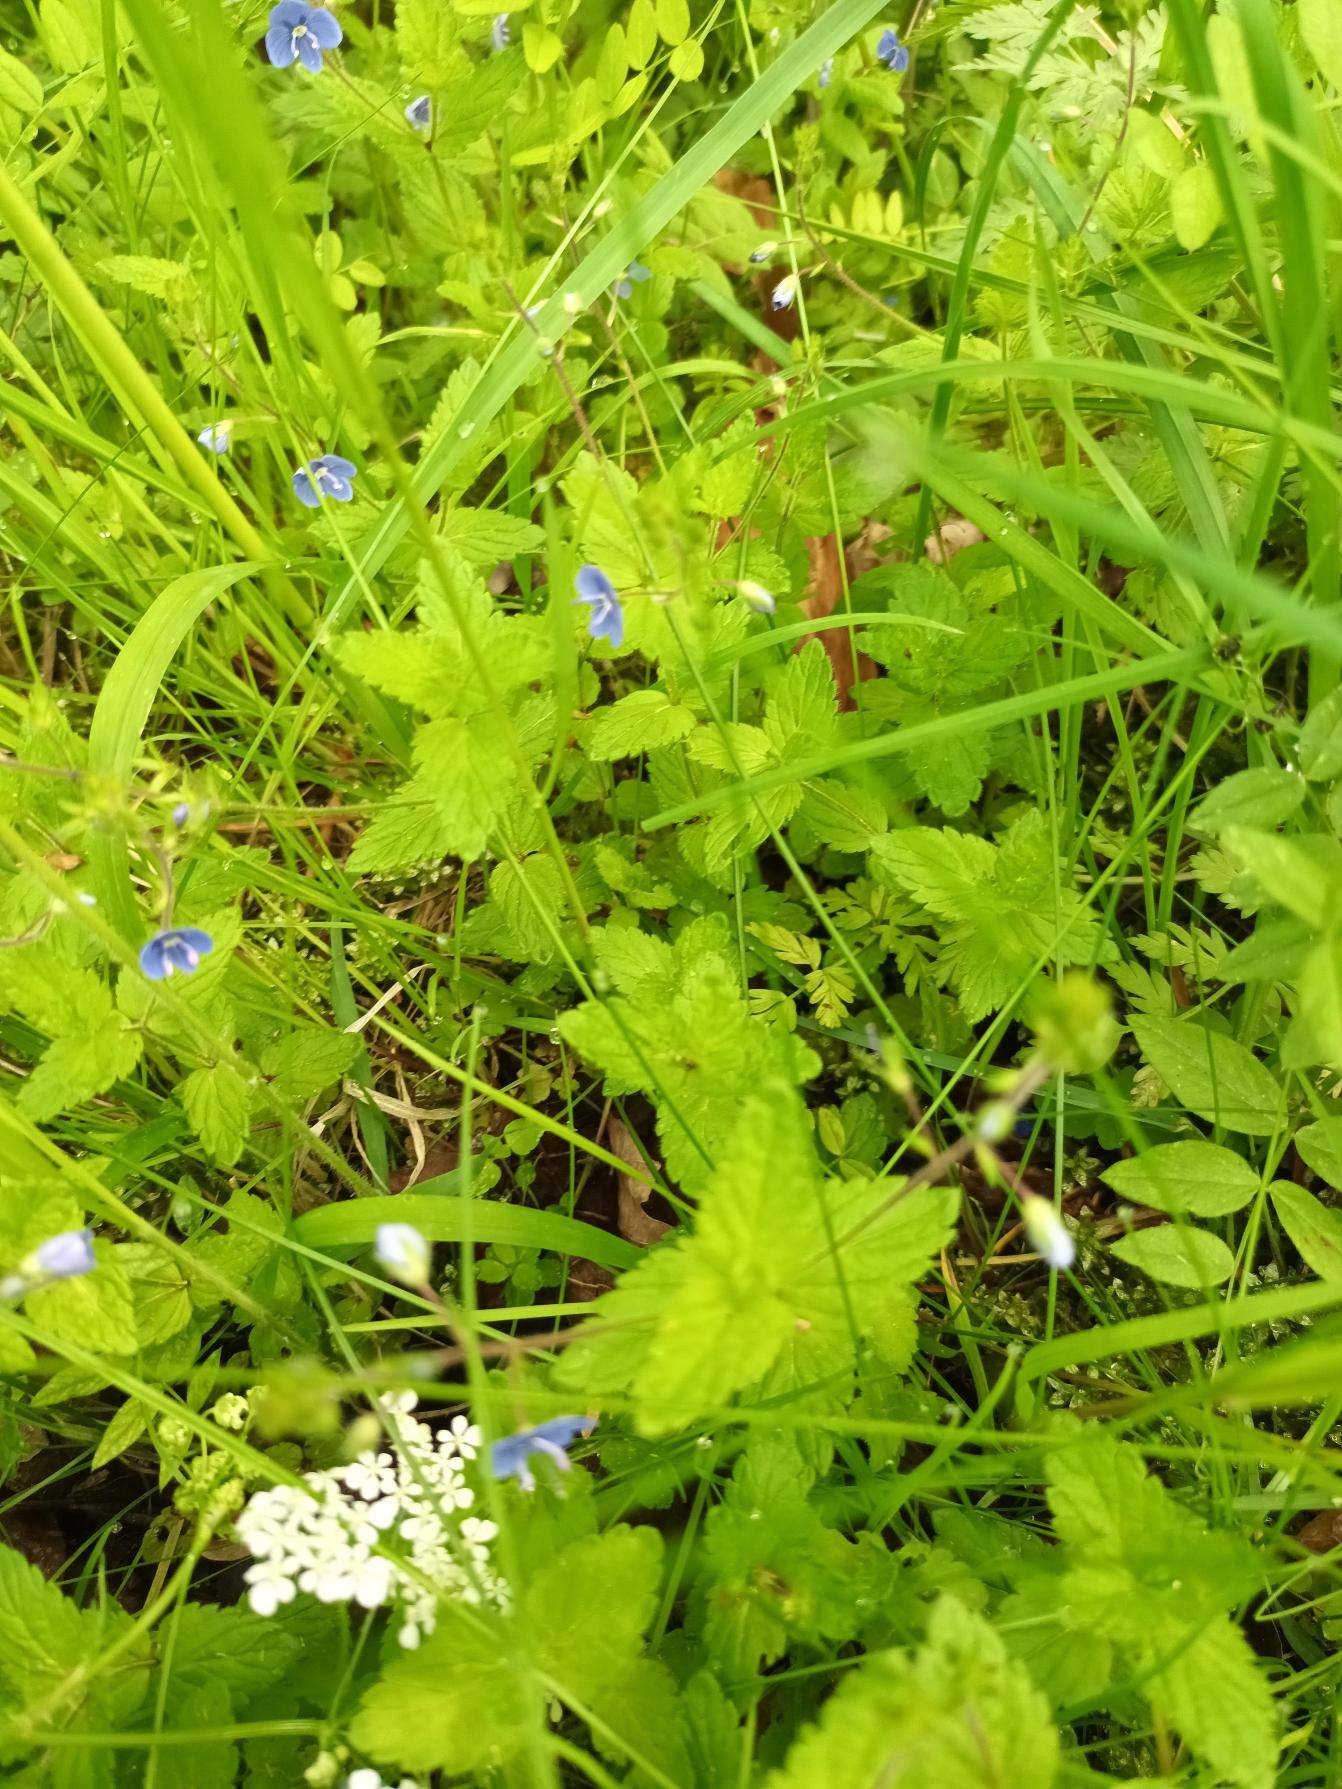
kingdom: Plantae
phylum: Tracheophyta
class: Magnoliopsida
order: Lamiales
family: Plantaginaceae
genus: Veronica
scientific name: Veronica chamaedrys
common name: Tveskægget ærenpris
